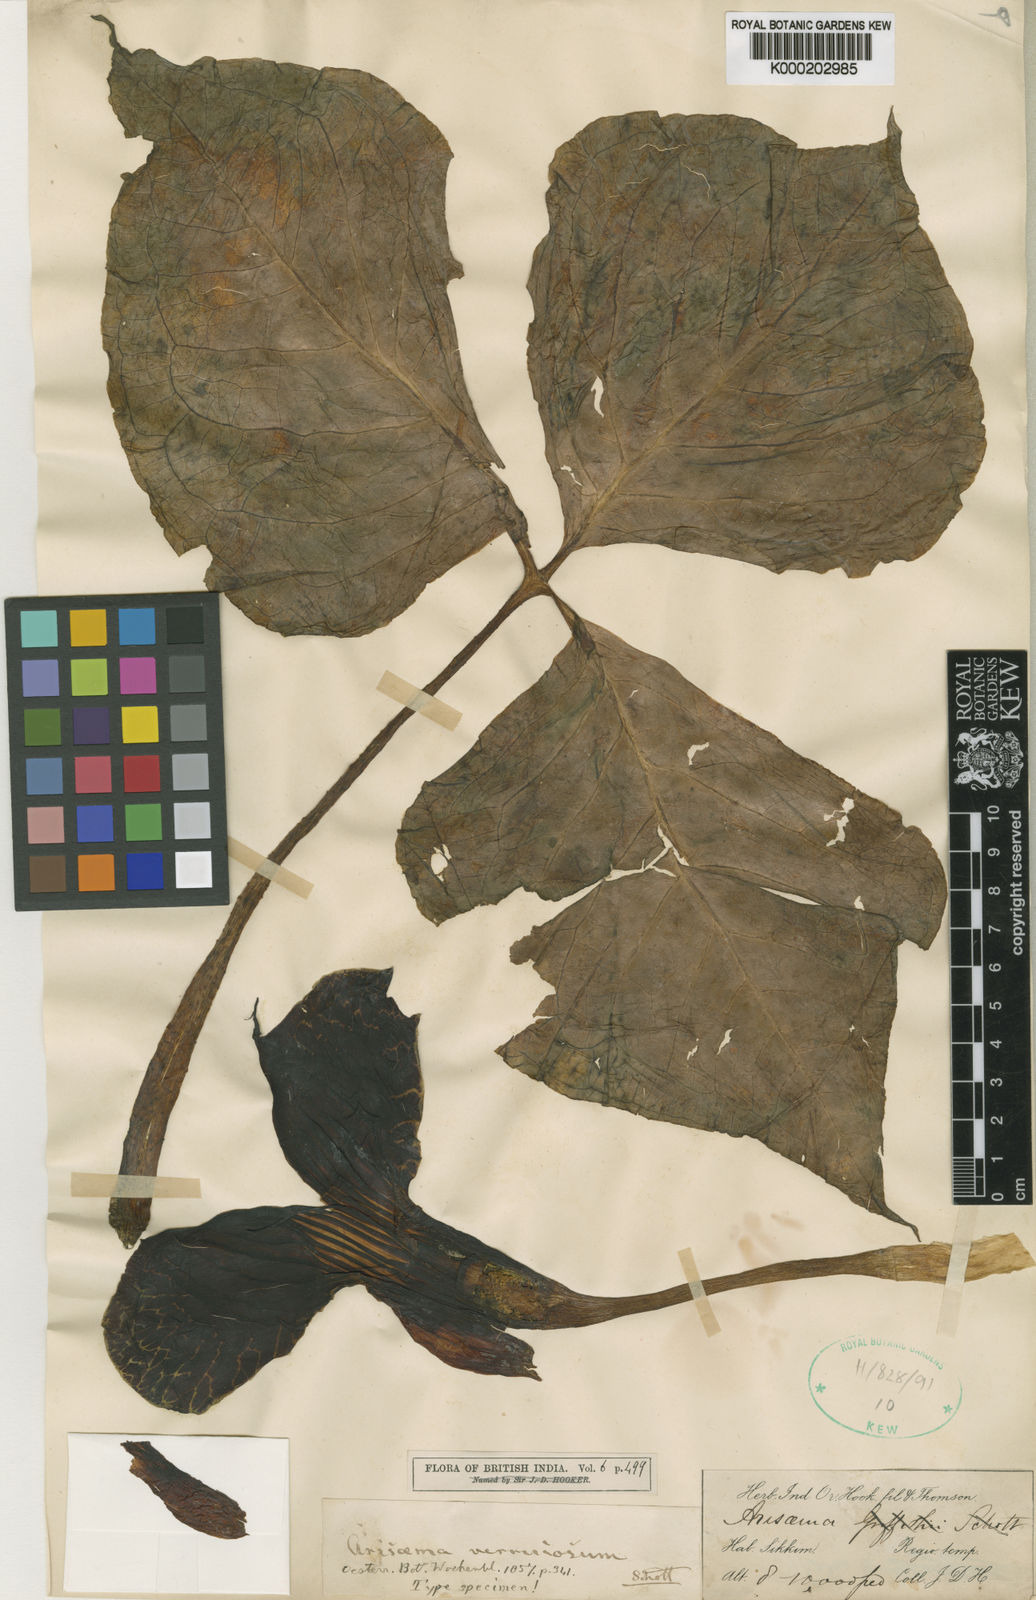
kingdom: Plantae
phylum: Tracheophyta
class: Liliopsida
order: Alismatales
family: Araceae
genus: Arisaema
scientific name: Arisaema griffithii
